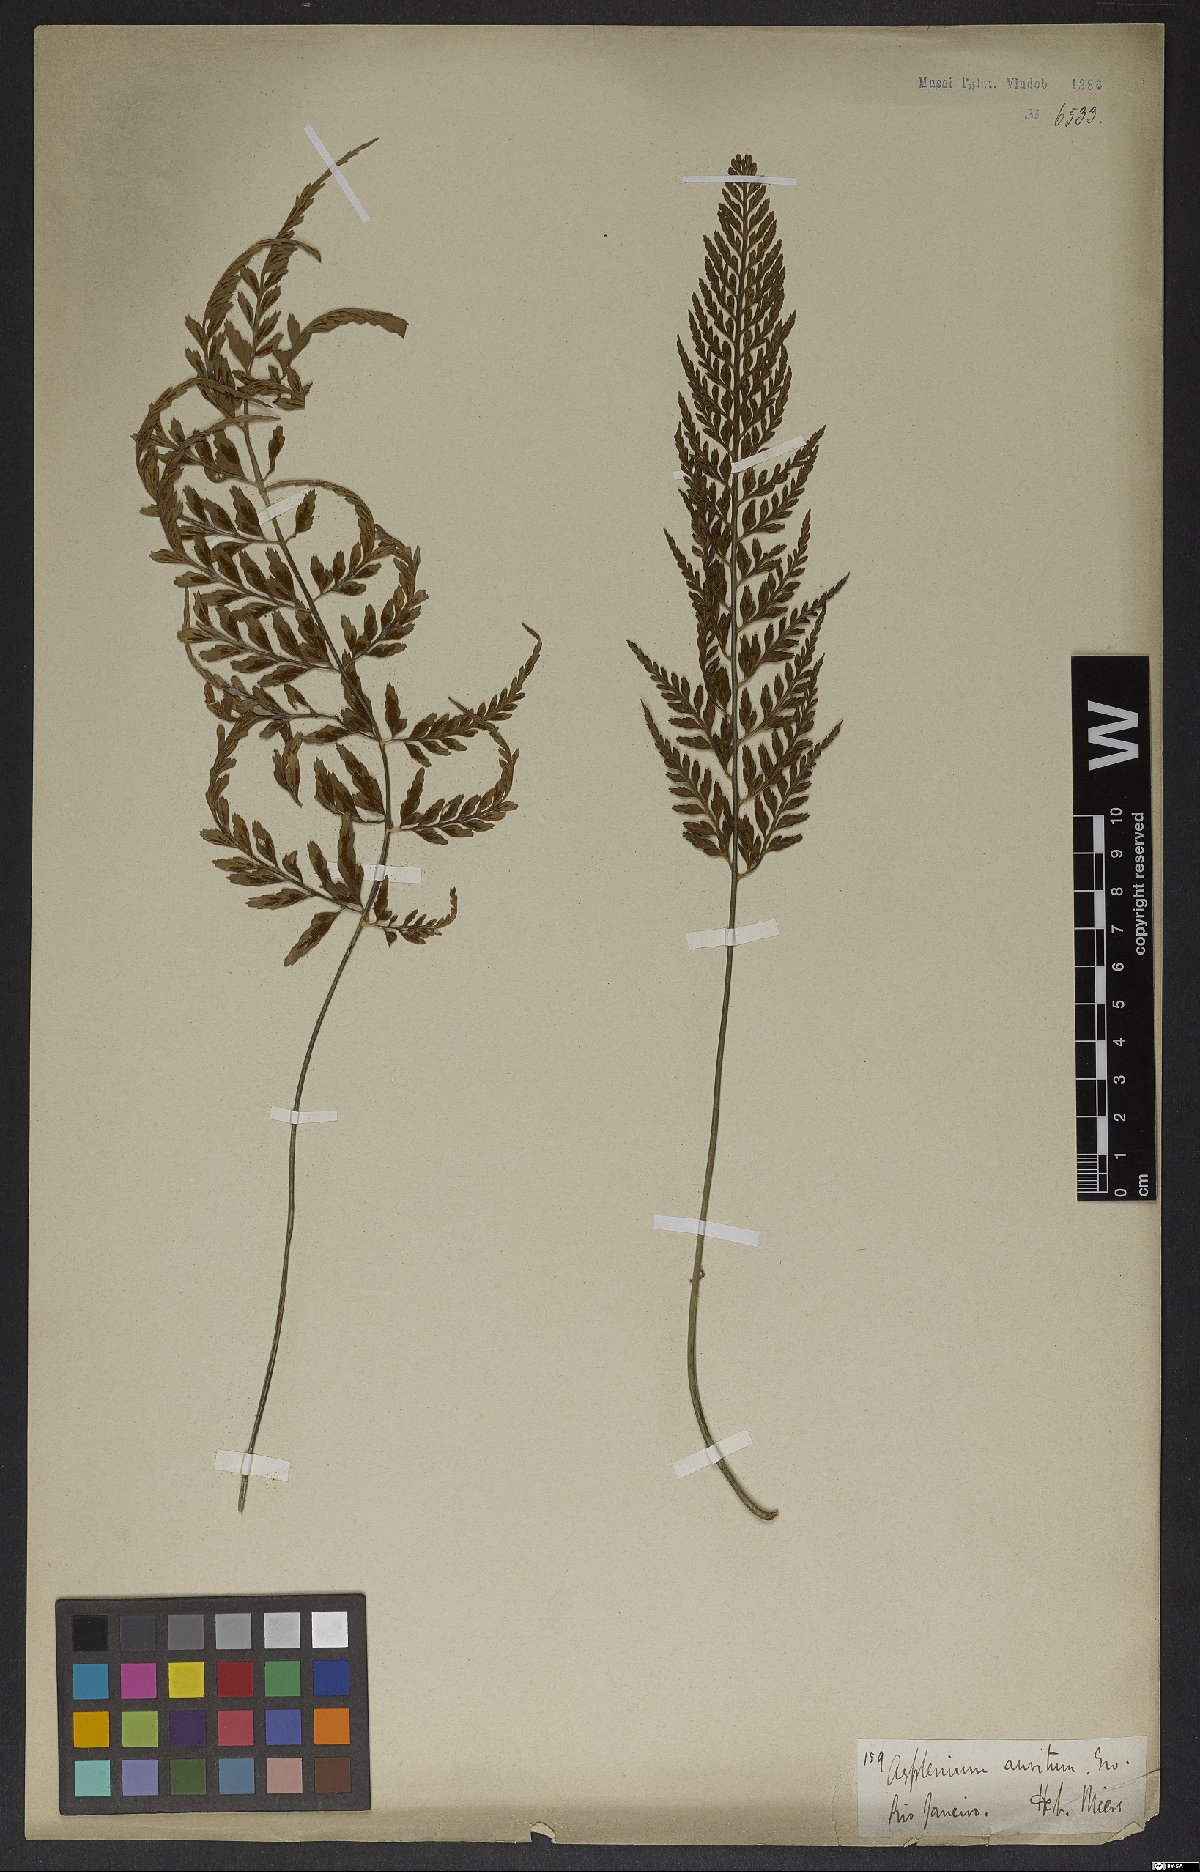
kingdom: Plantae
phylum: Tracheophyta
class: Polypodiopsida
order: Polypodiales
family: Aspleniaceae
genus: Asplenium
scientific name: Asplenium sulcatum
